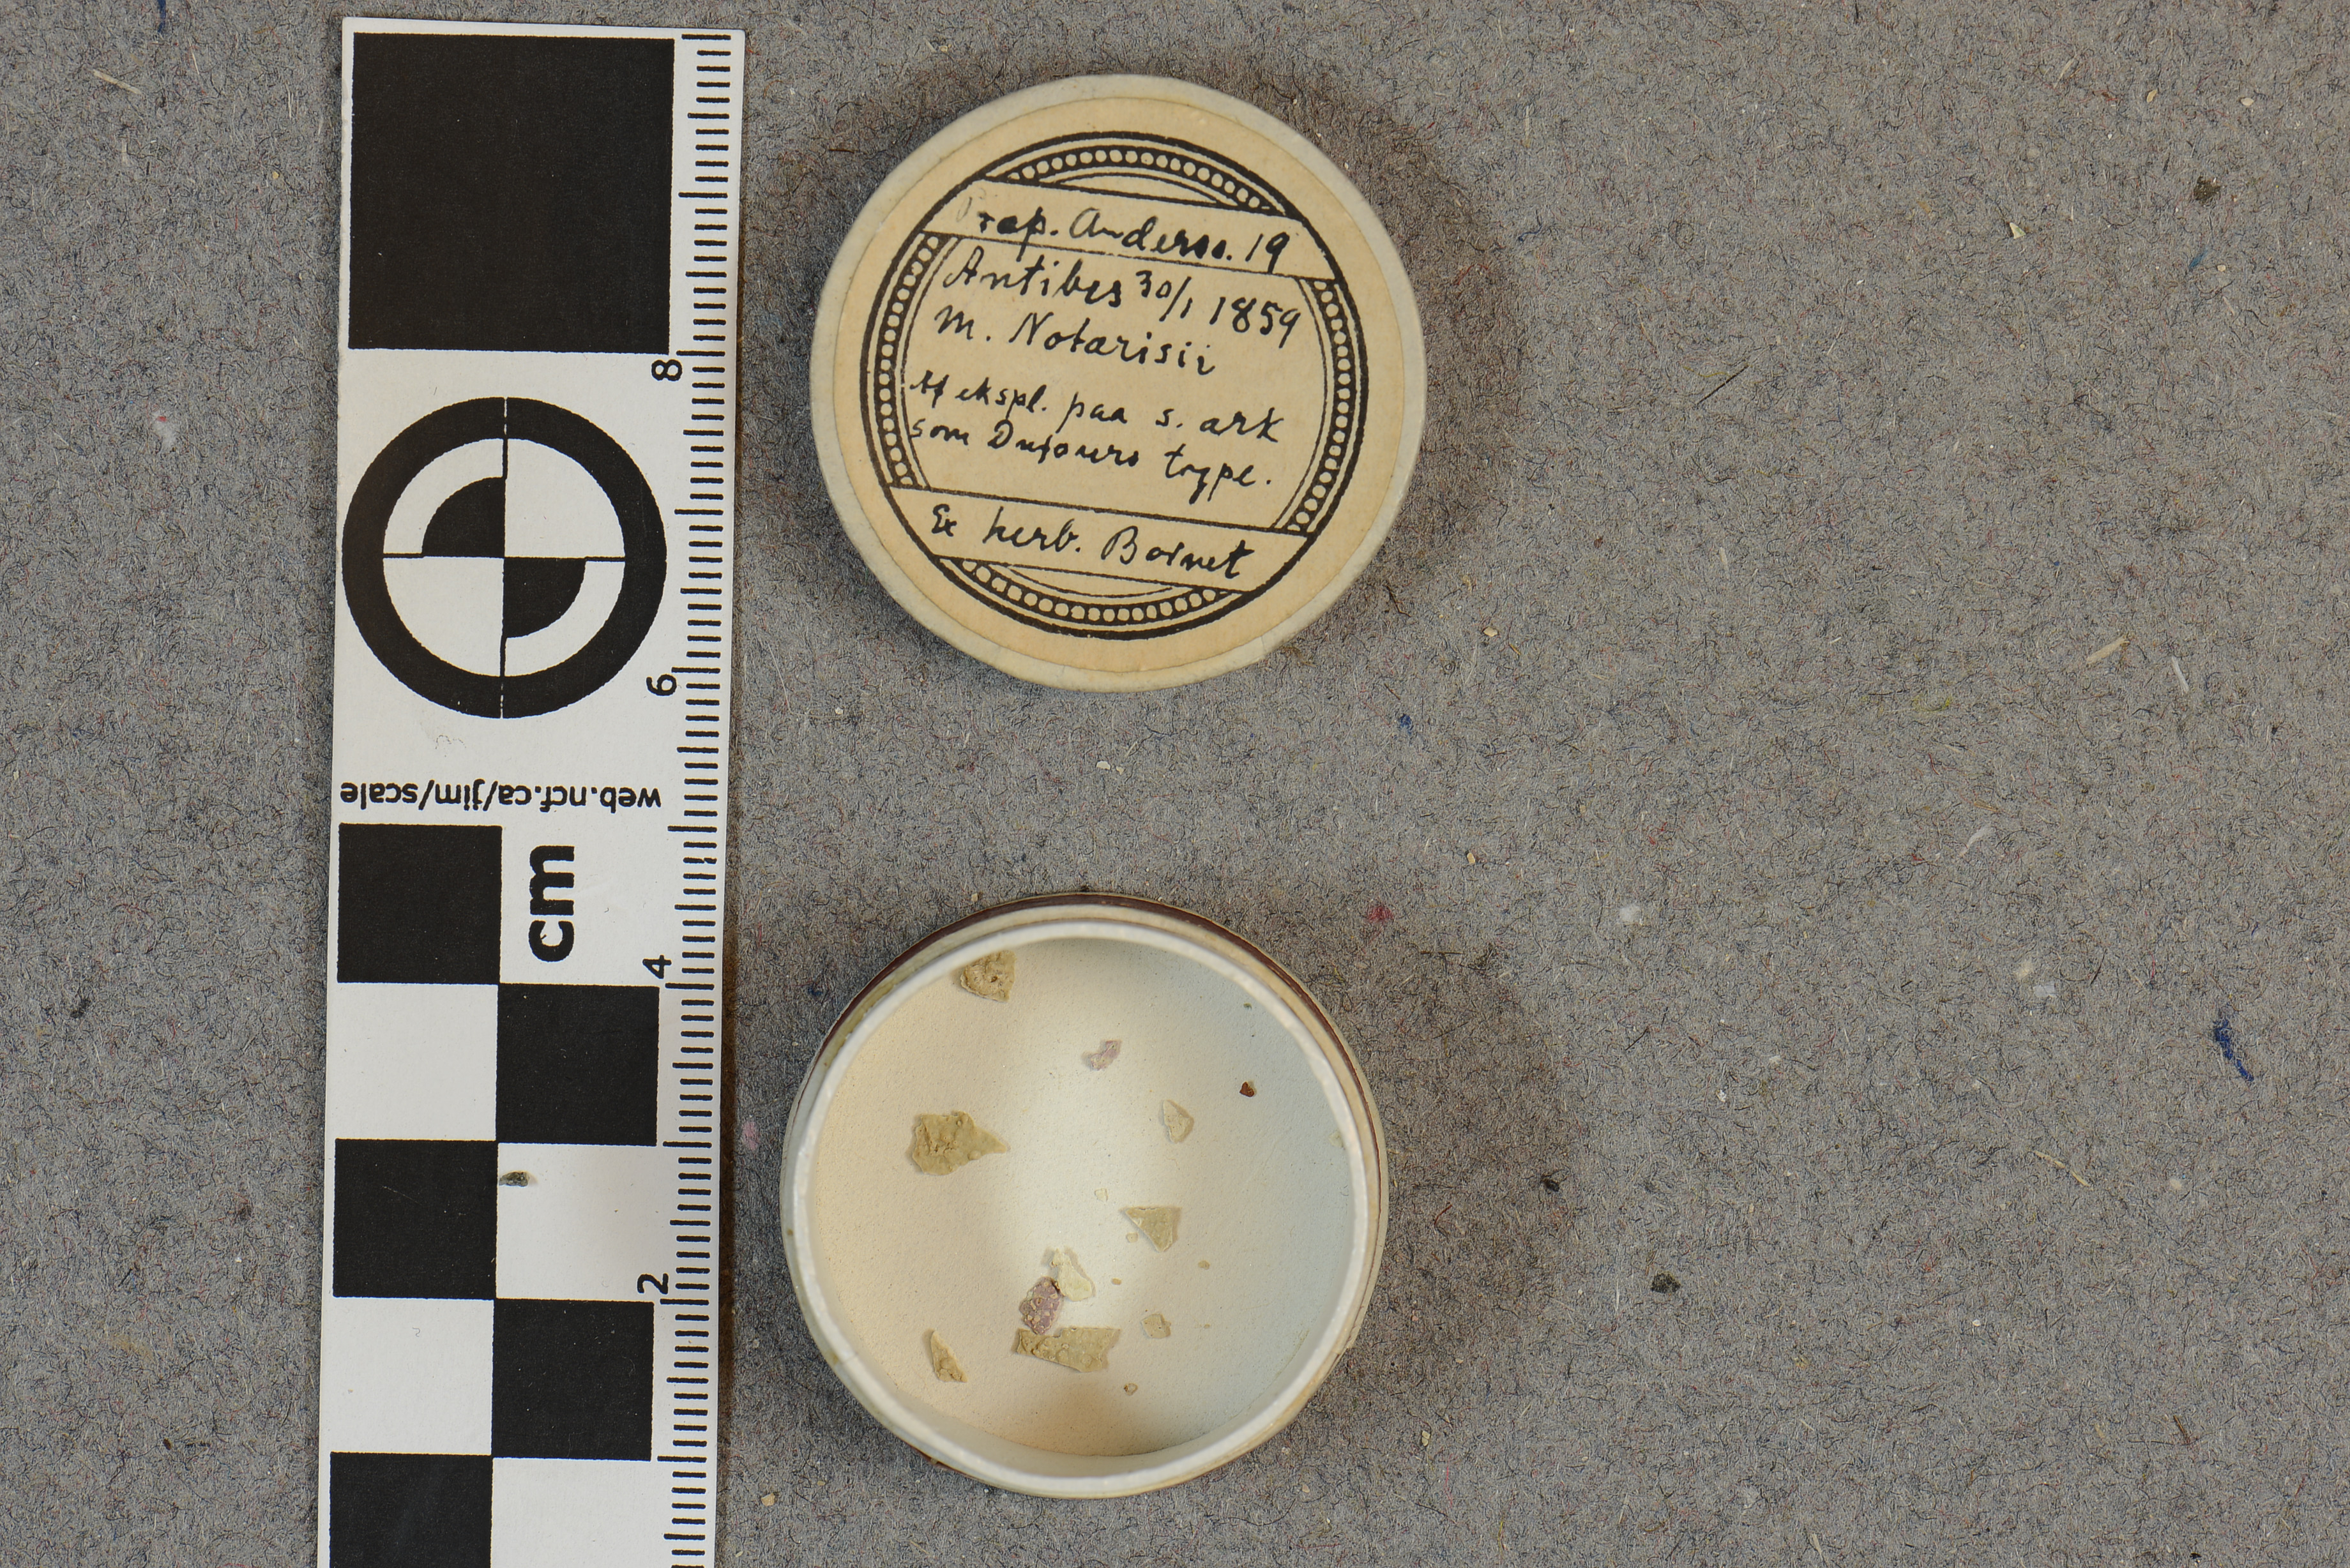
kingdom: Plantae
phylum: Rhodophyta
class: Florideophyceae
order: Corallinales
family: Spongitaceae
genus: Neogoniolithon
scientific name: Neogoniolithon brassica-florida
